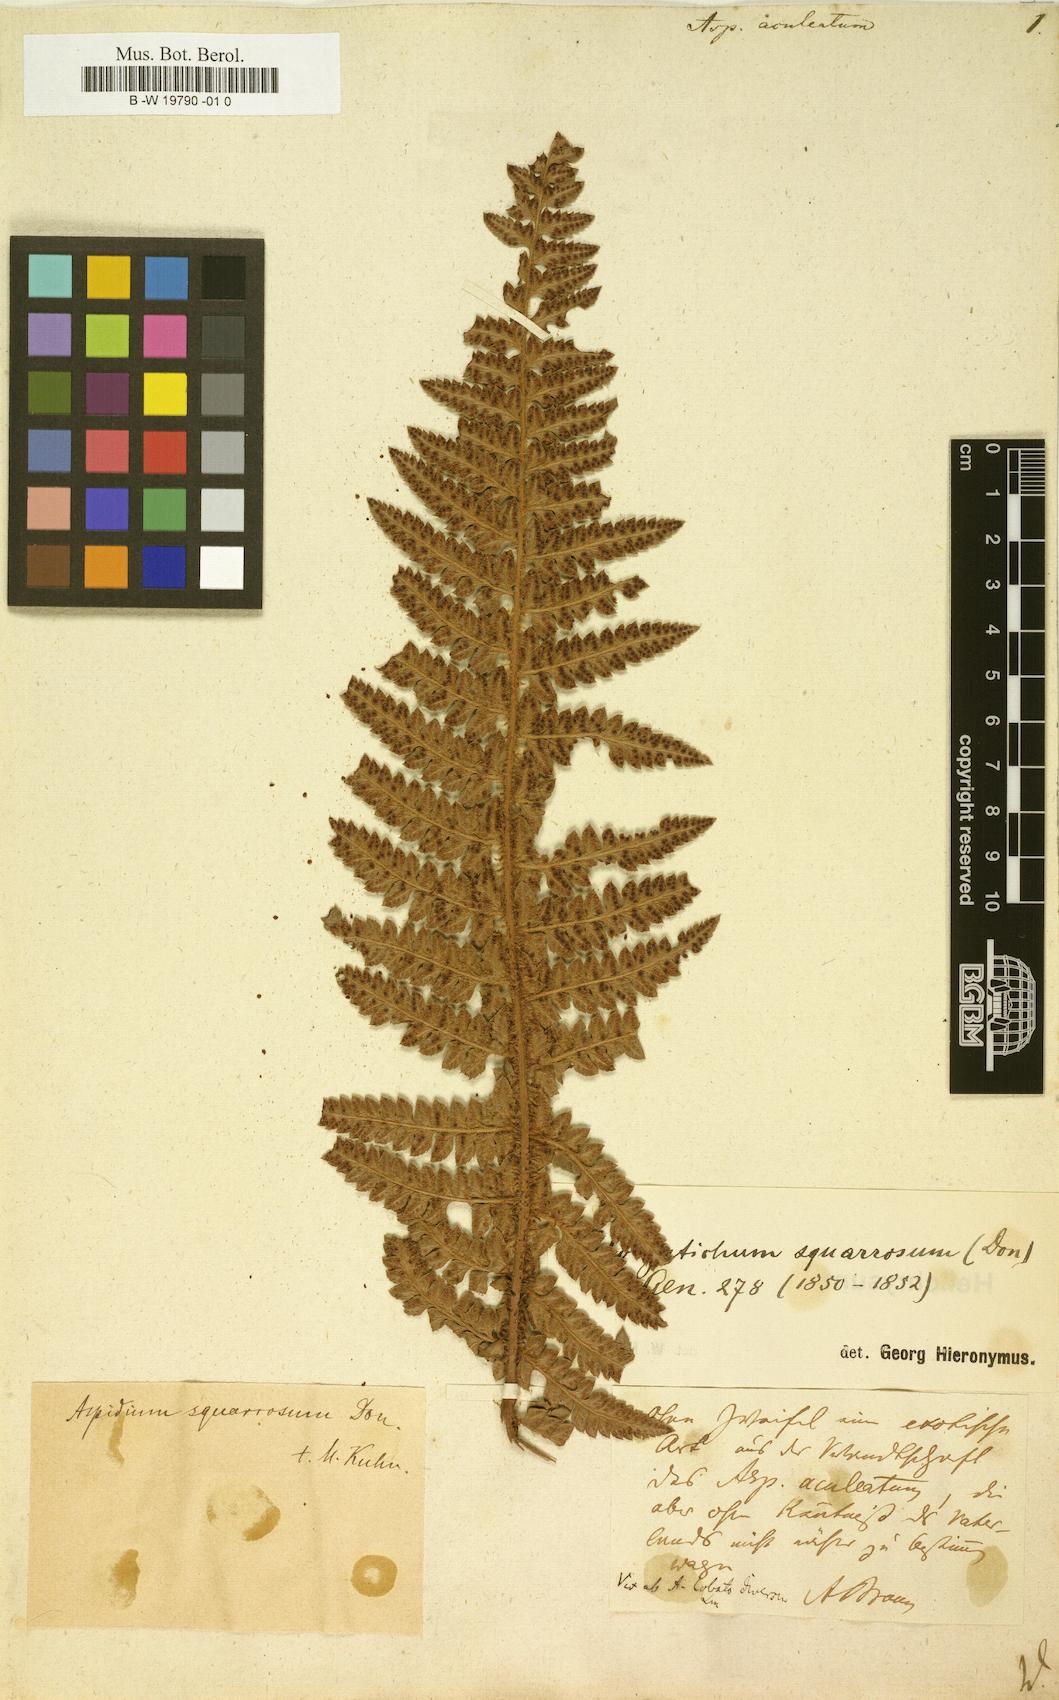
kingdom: Plantae
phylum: Tracheophyta
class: Polypodiopsida
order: Polypodiales
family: Dryopteridaceae
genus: Polystichum
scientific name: Polystichum aculeatum
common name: Hard shield-fern
